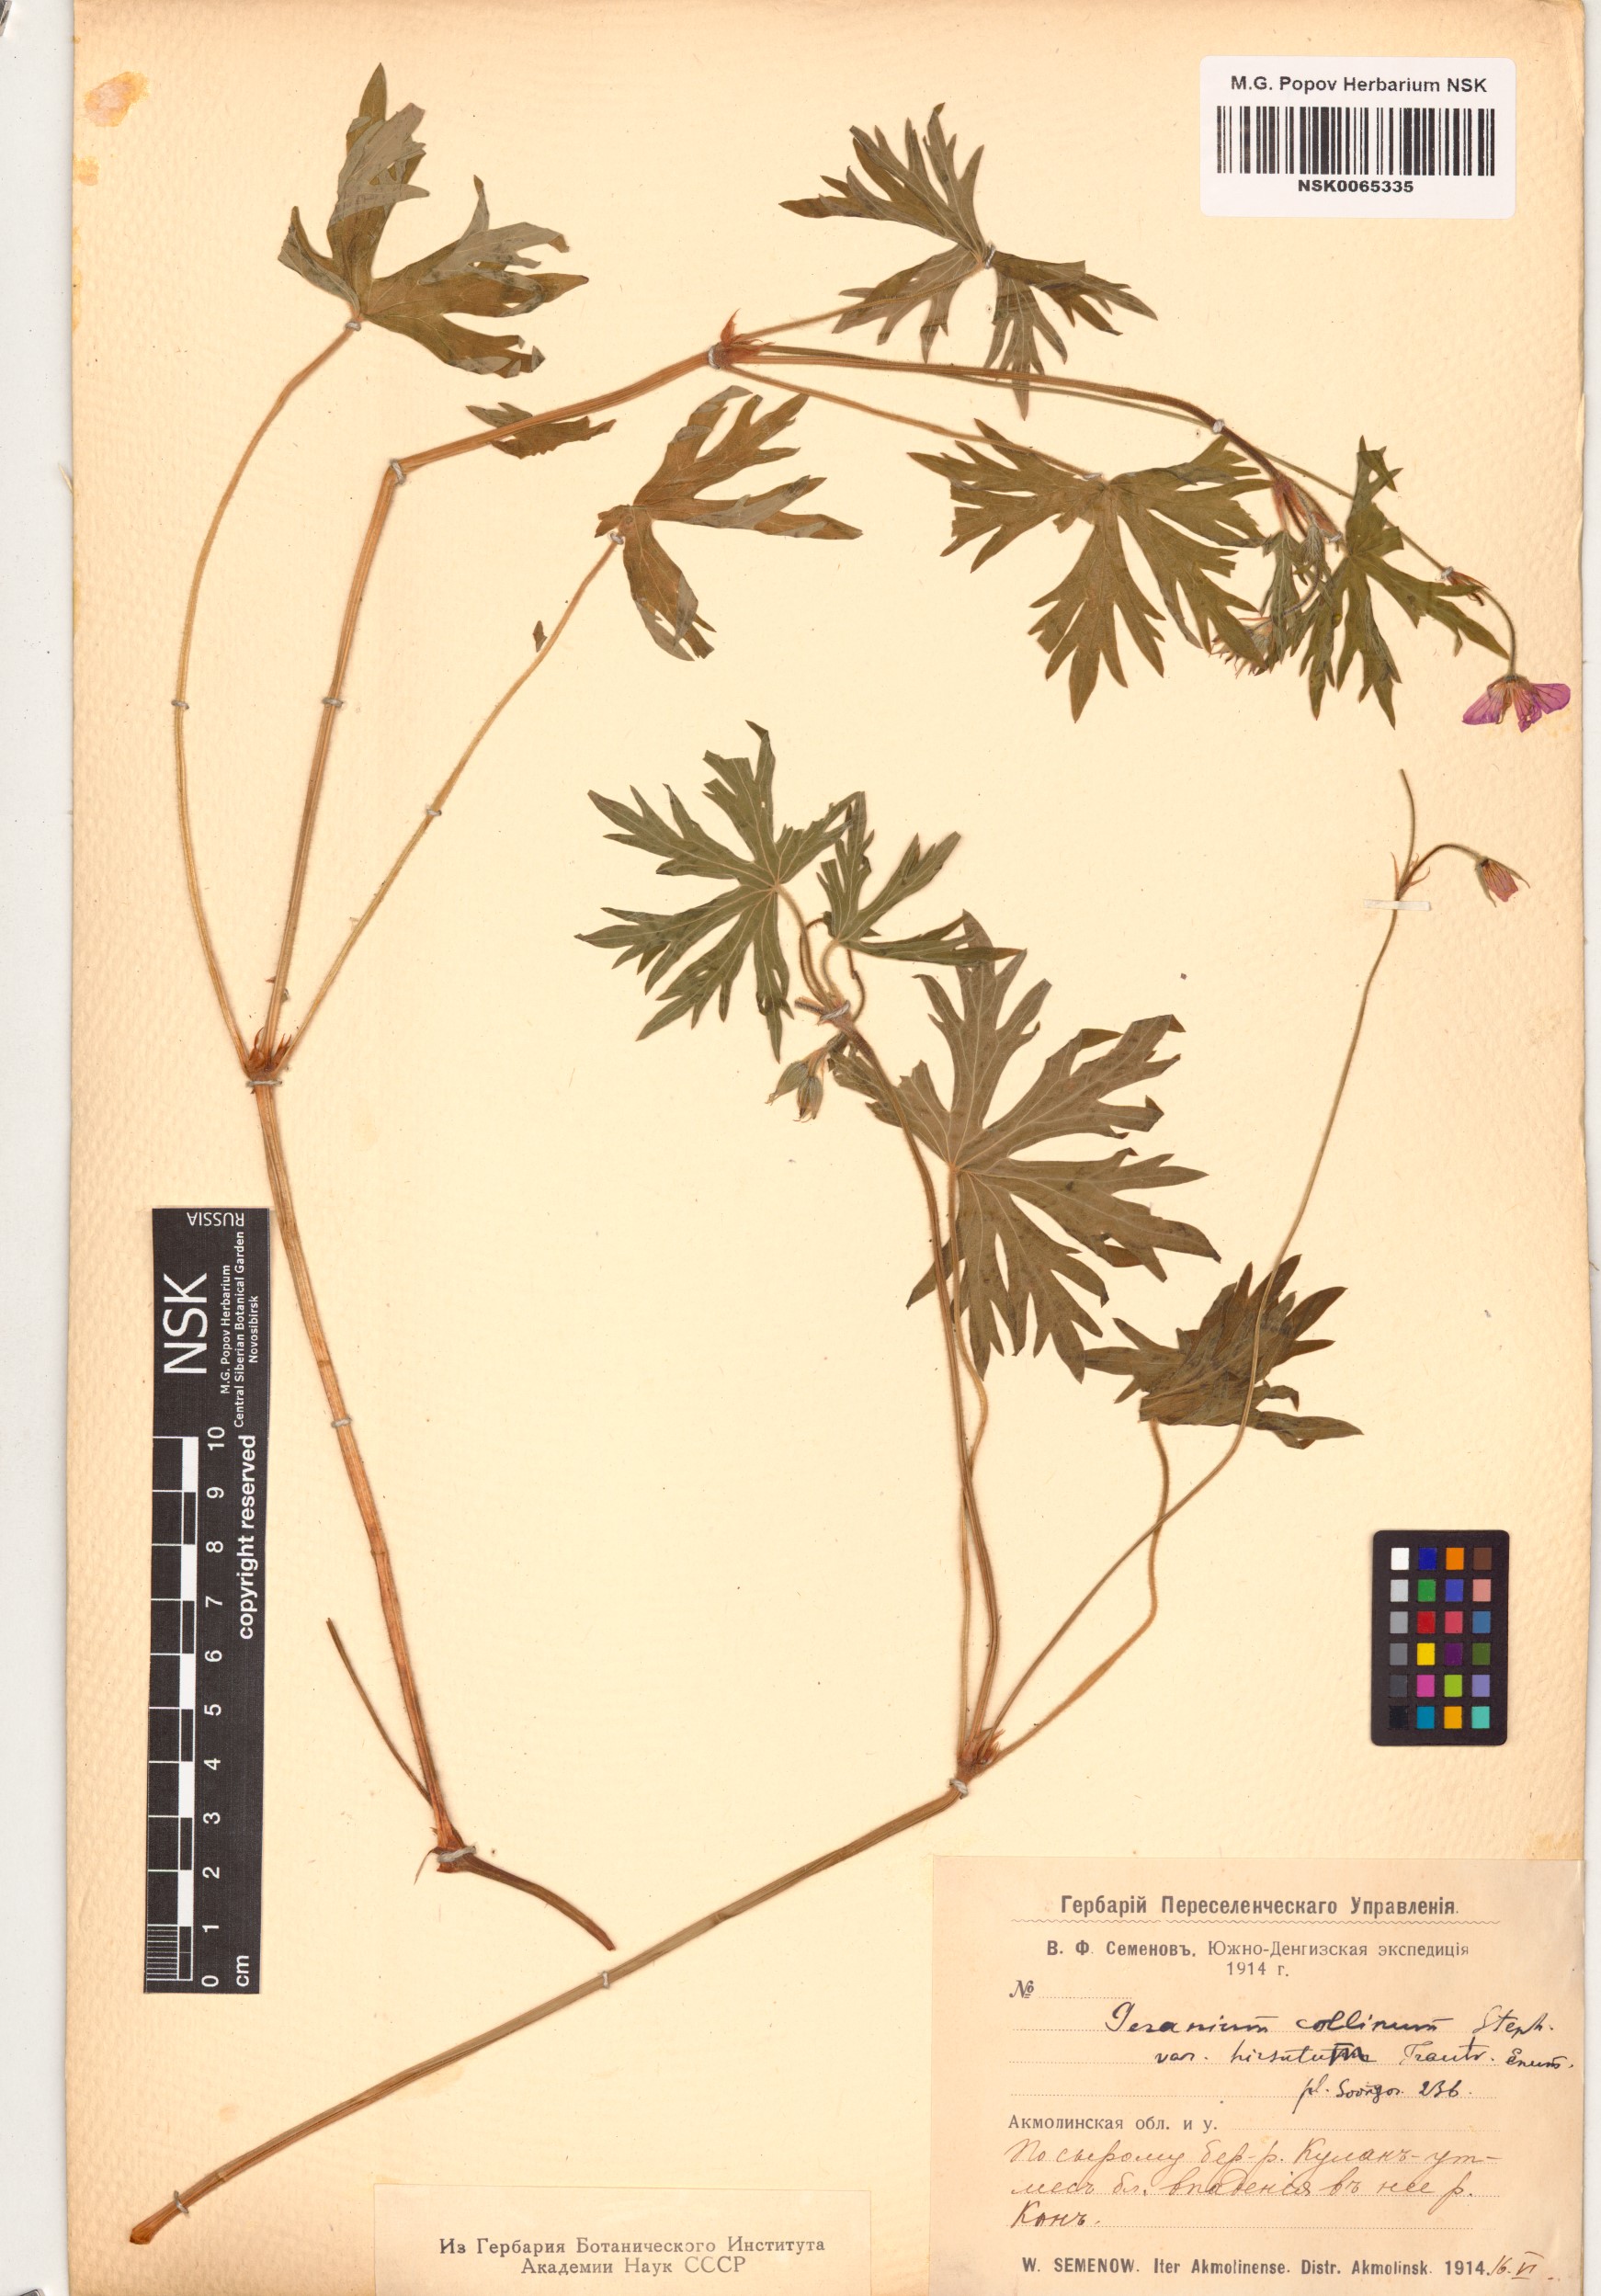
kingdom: Plantae
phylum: Tracheophyta
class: Magnoliopsida
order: Geraniales
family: Geraniaceae
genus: Geranium
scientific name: Geranium collinum
